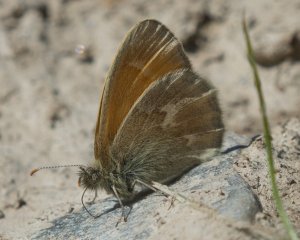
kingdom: Animalia
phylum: Arthropoda
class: Insecta
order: Lepidoptera
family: Nymphalidae
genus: Coenonympha
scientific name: Coenonympha tullia
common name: Large Heath
